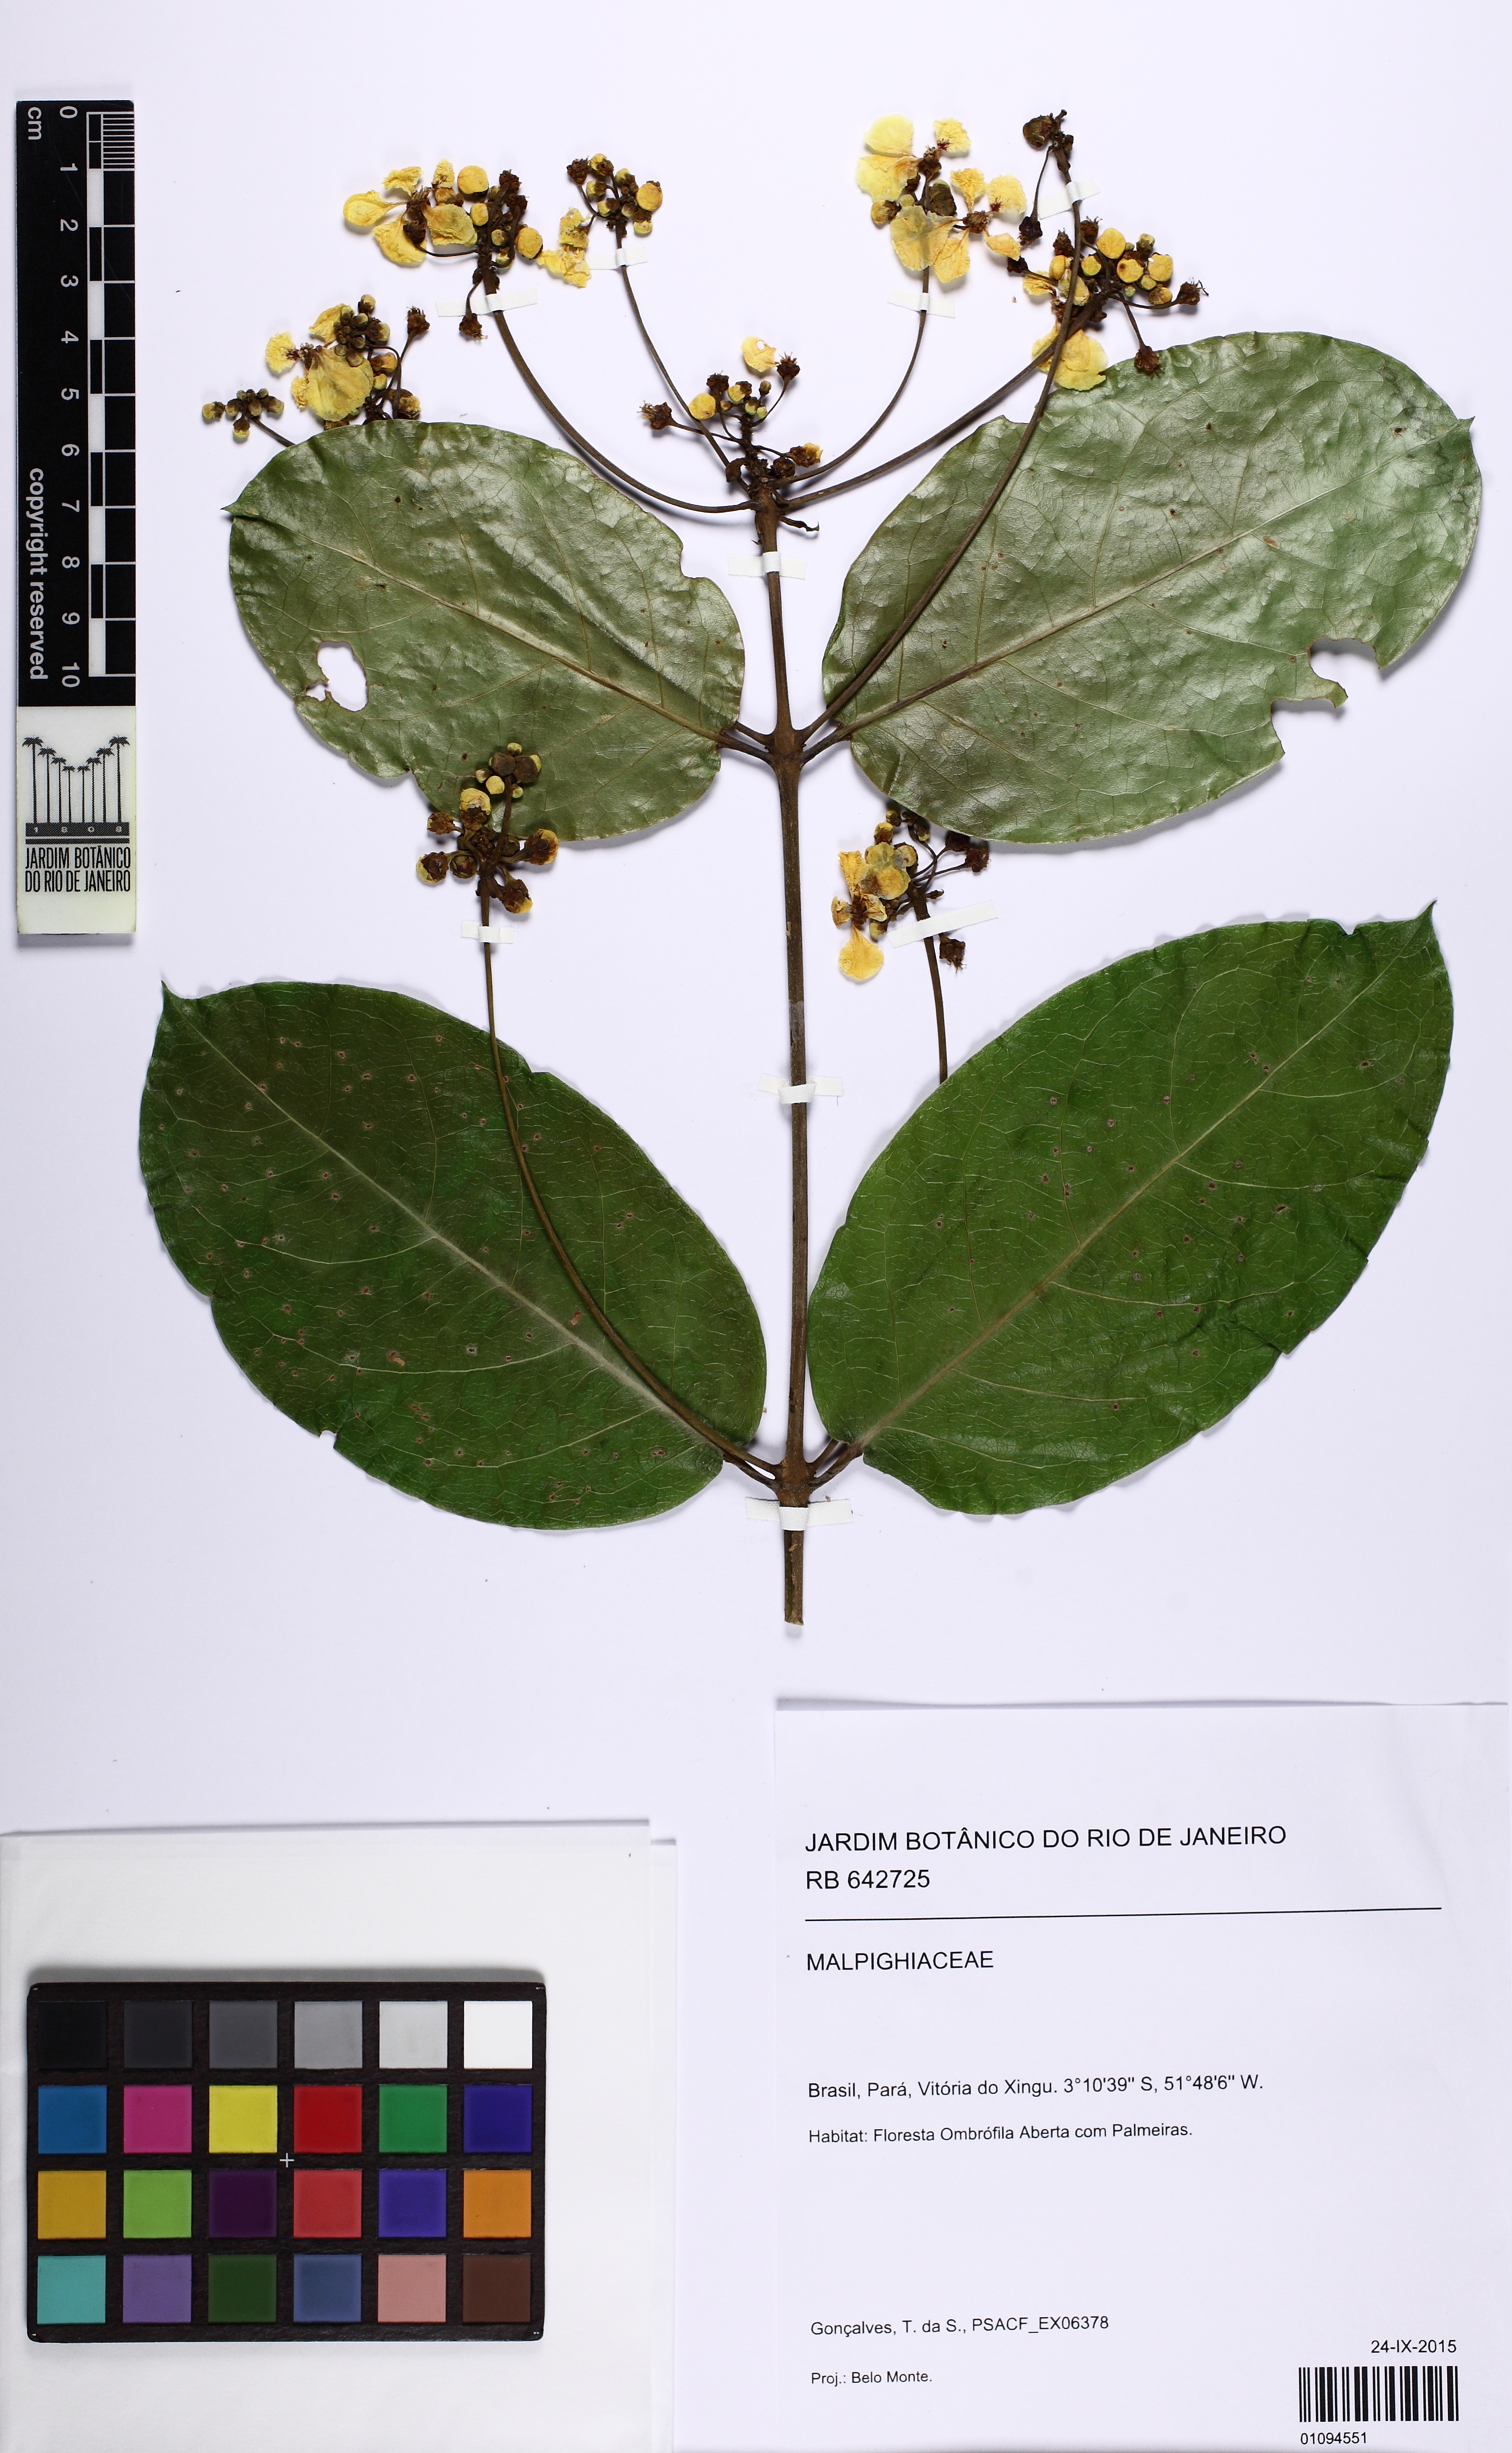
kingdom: Plantae
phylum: Tracheophyta
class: Magnoliopsida
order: Malpighiales
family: Malpighiaceae
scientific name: Malpighiaceae
